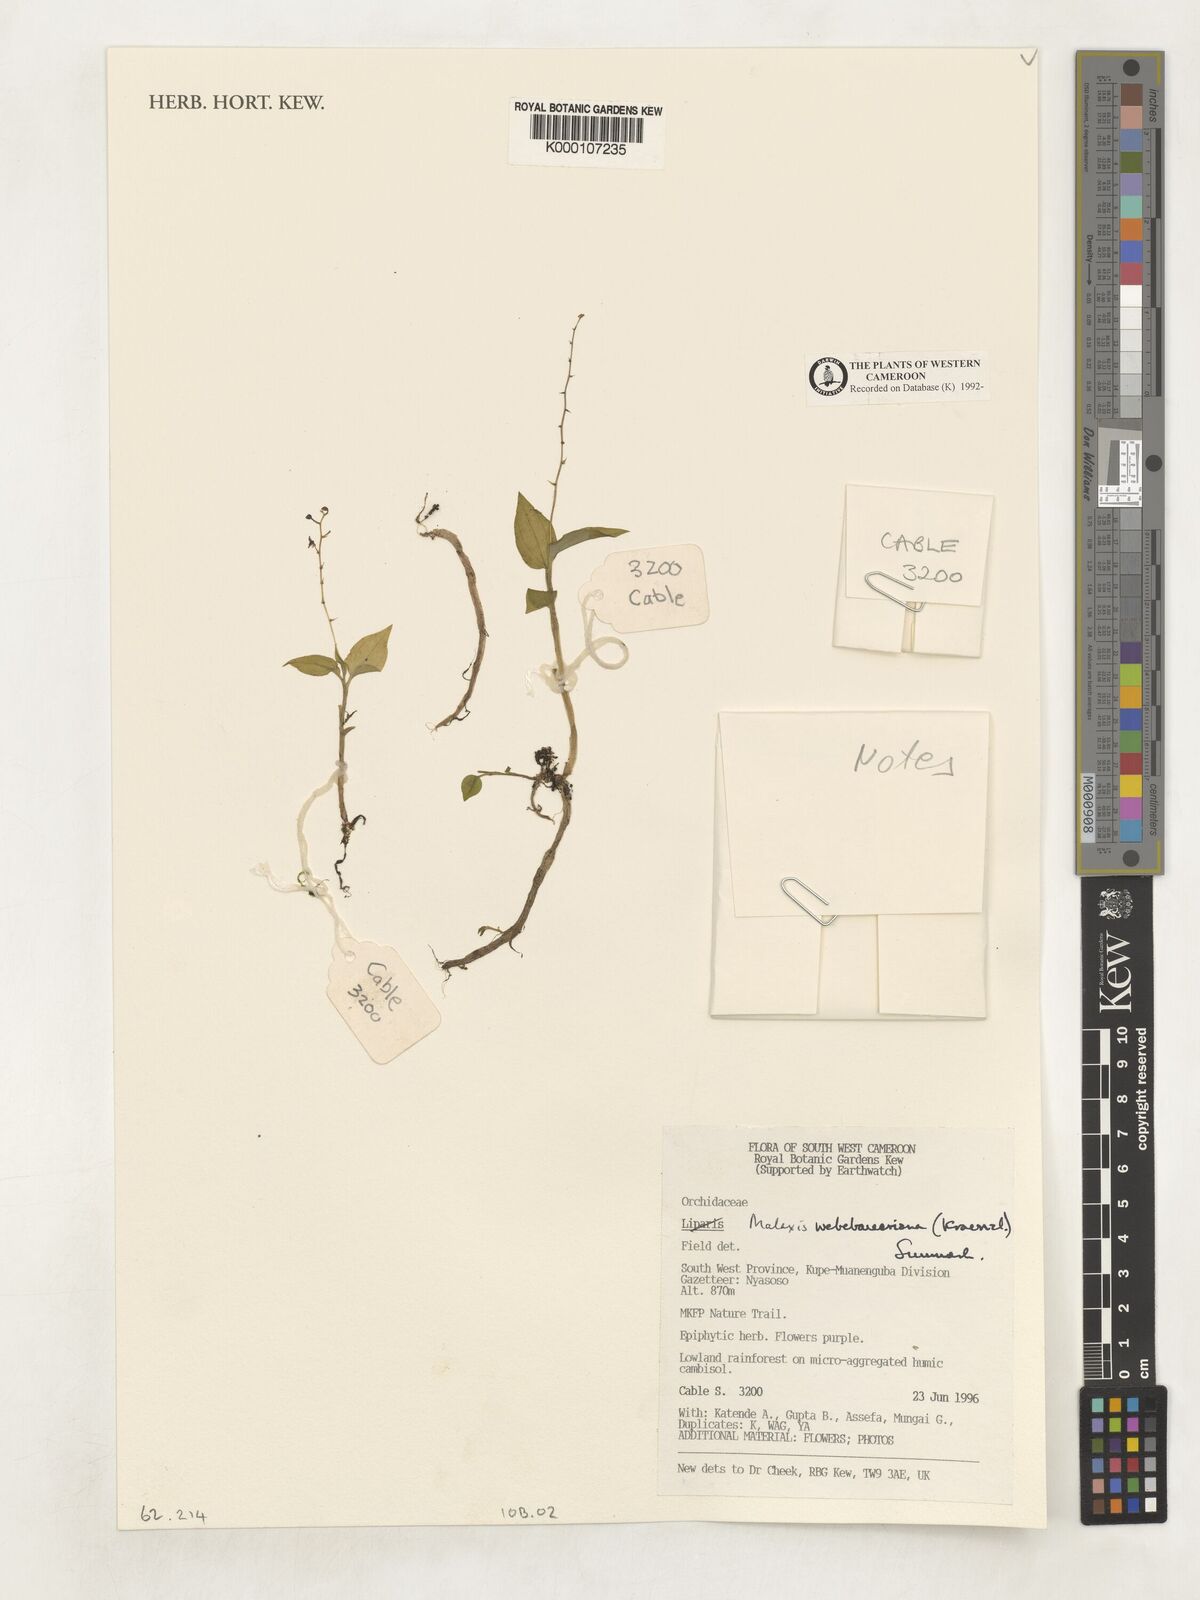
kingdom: Plantae
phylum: Tracheophyta
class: Liliopsida
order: Asparagales
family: Orchidaceae
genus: Malaxis
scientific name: Malaxis weberbaueriana
